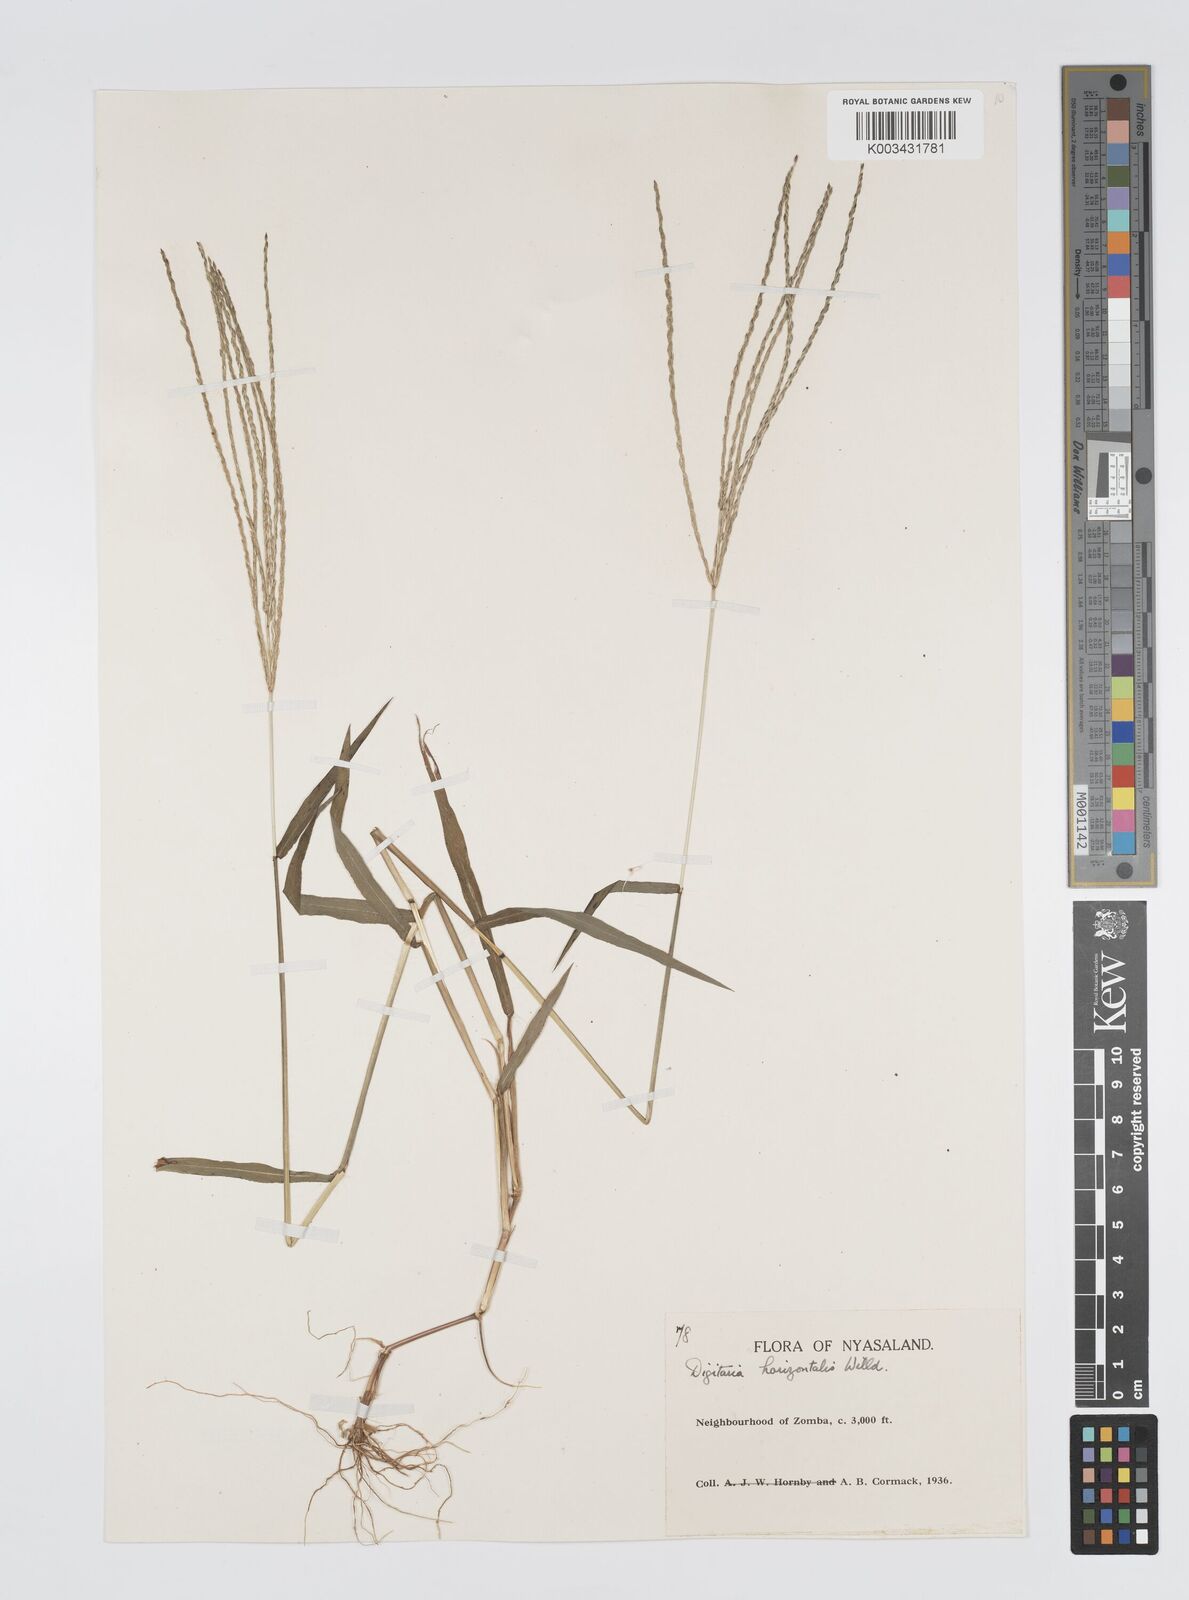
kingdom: Plantae
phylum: Tracheophyta
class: Liliopsida
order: Poales
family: Poaceae
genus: Digitaria
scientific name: Digitaria nuda
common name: Naked crabgrass
